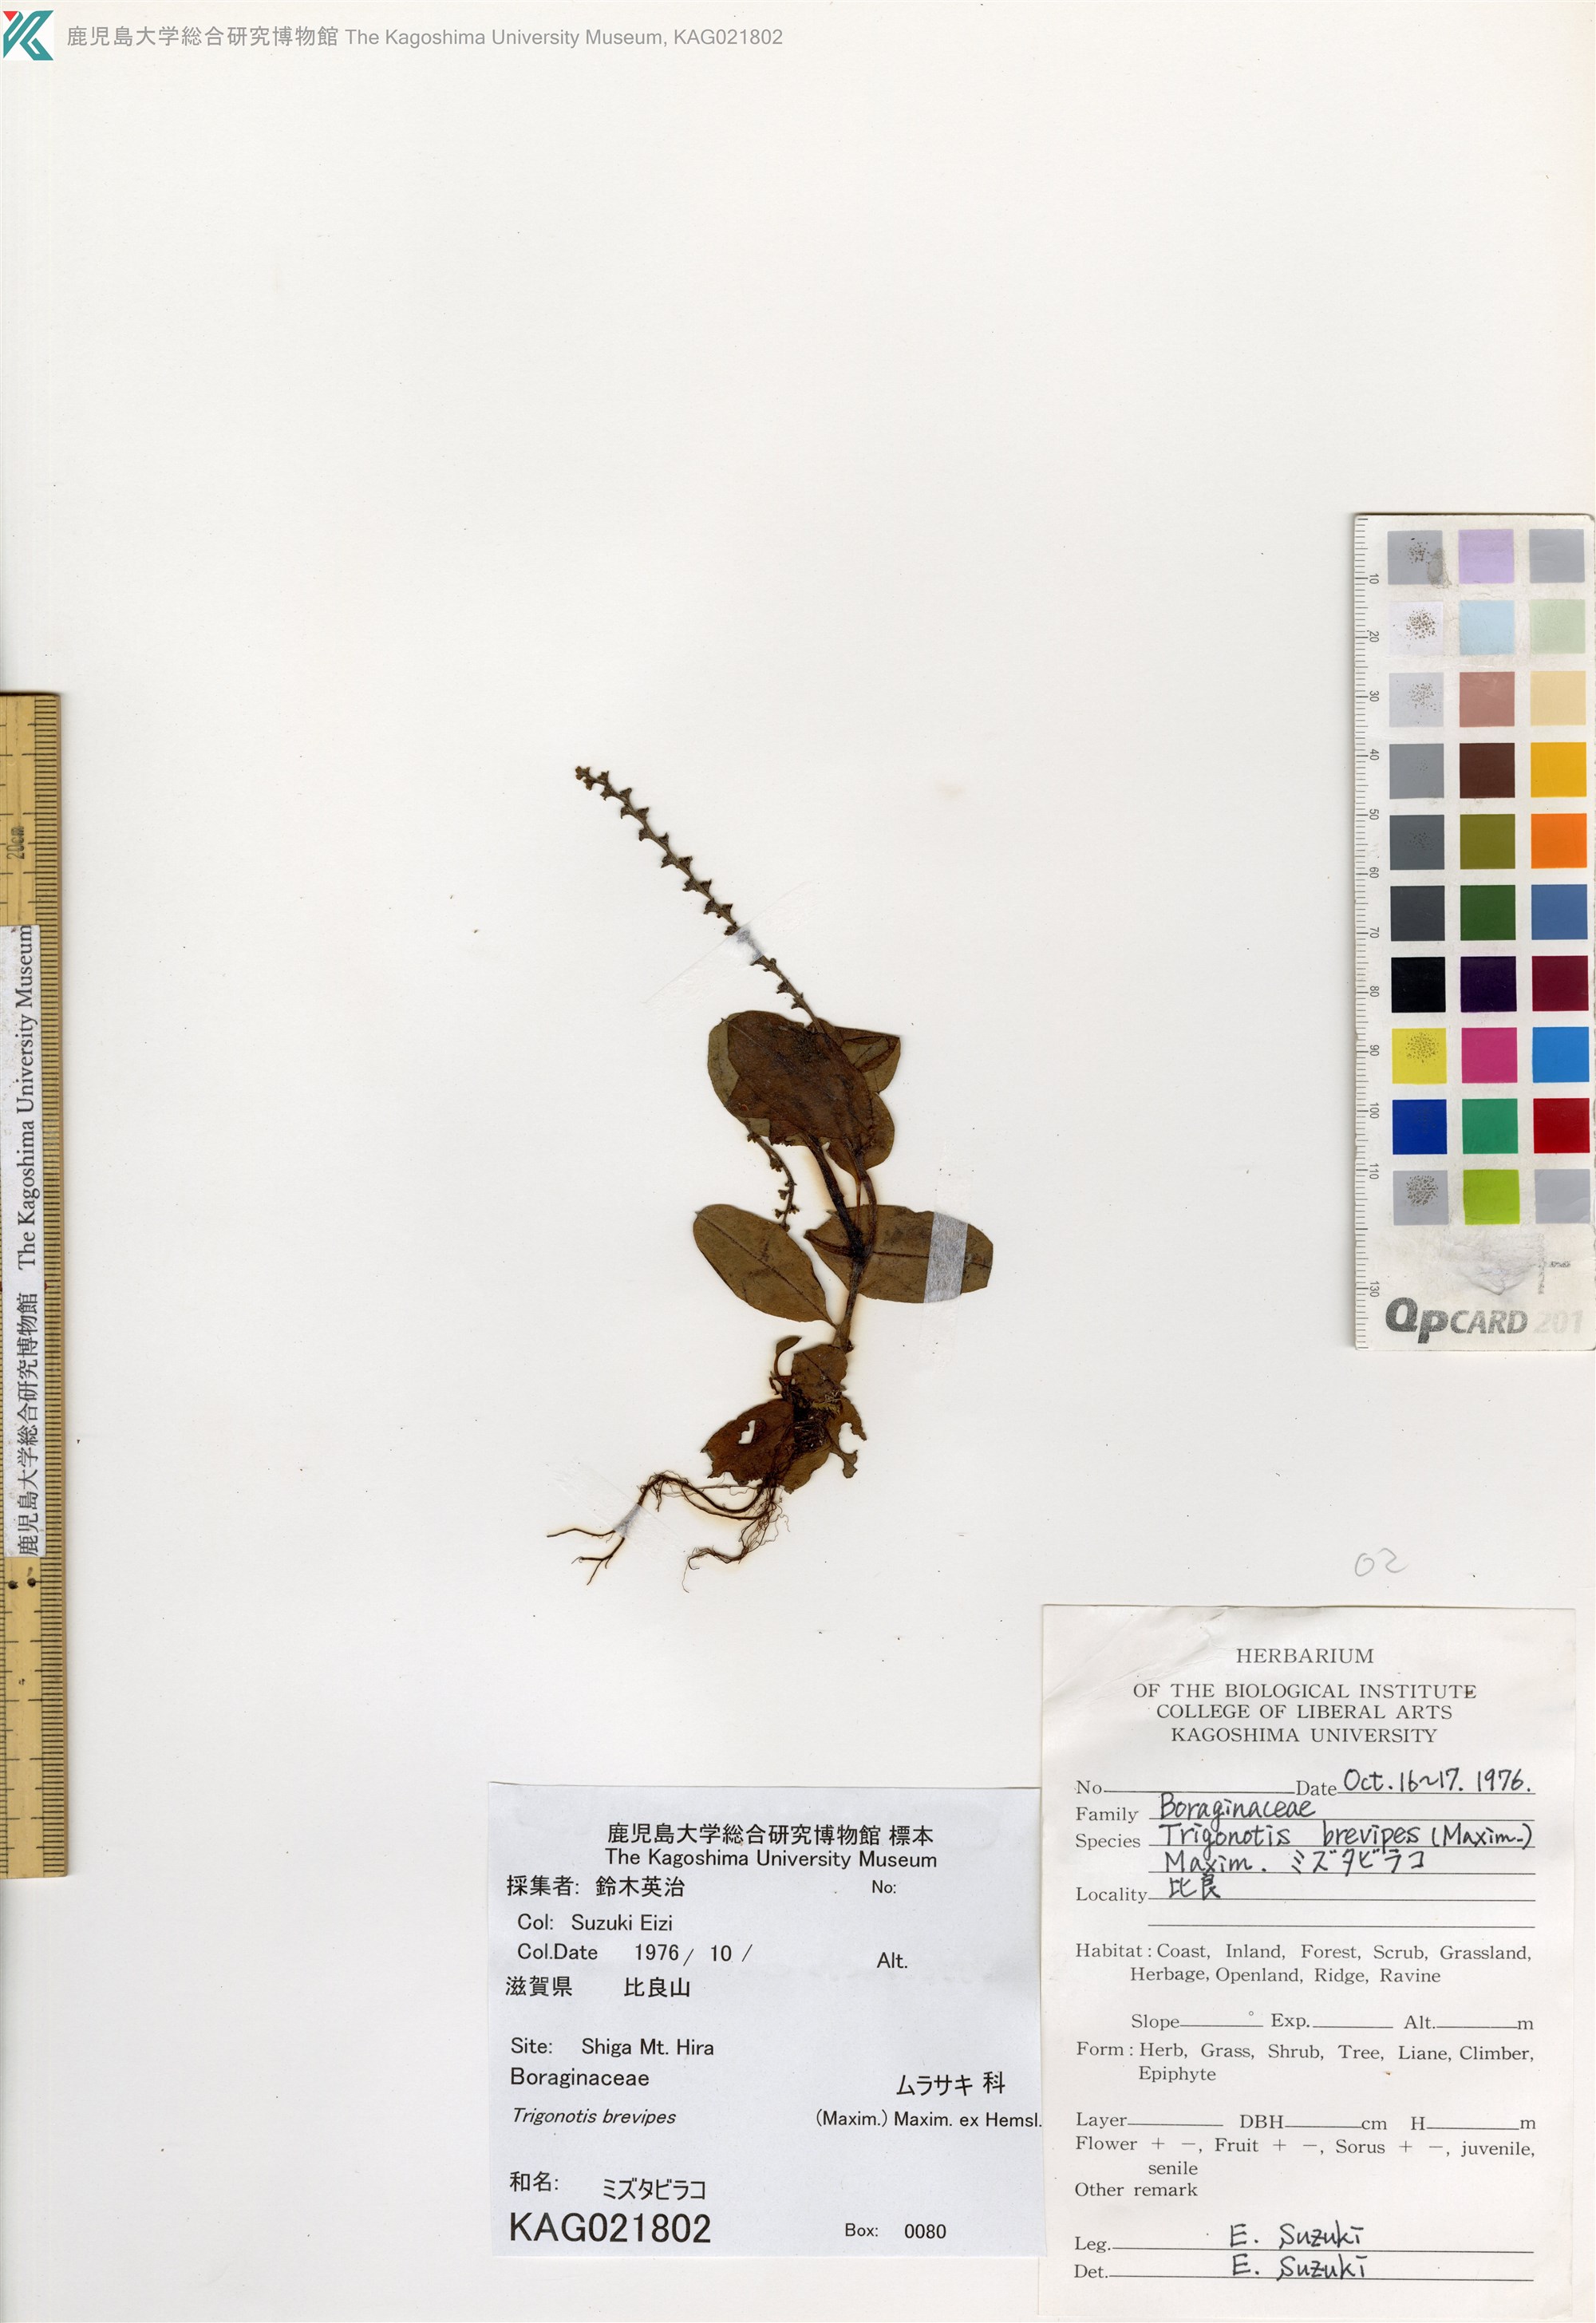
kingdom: Plantae
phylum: Tracheophyta
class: Magnoliopsida
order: Boraginales
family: Boraginaceae
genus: Trigonotis
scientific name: Trigonotis brevipes
